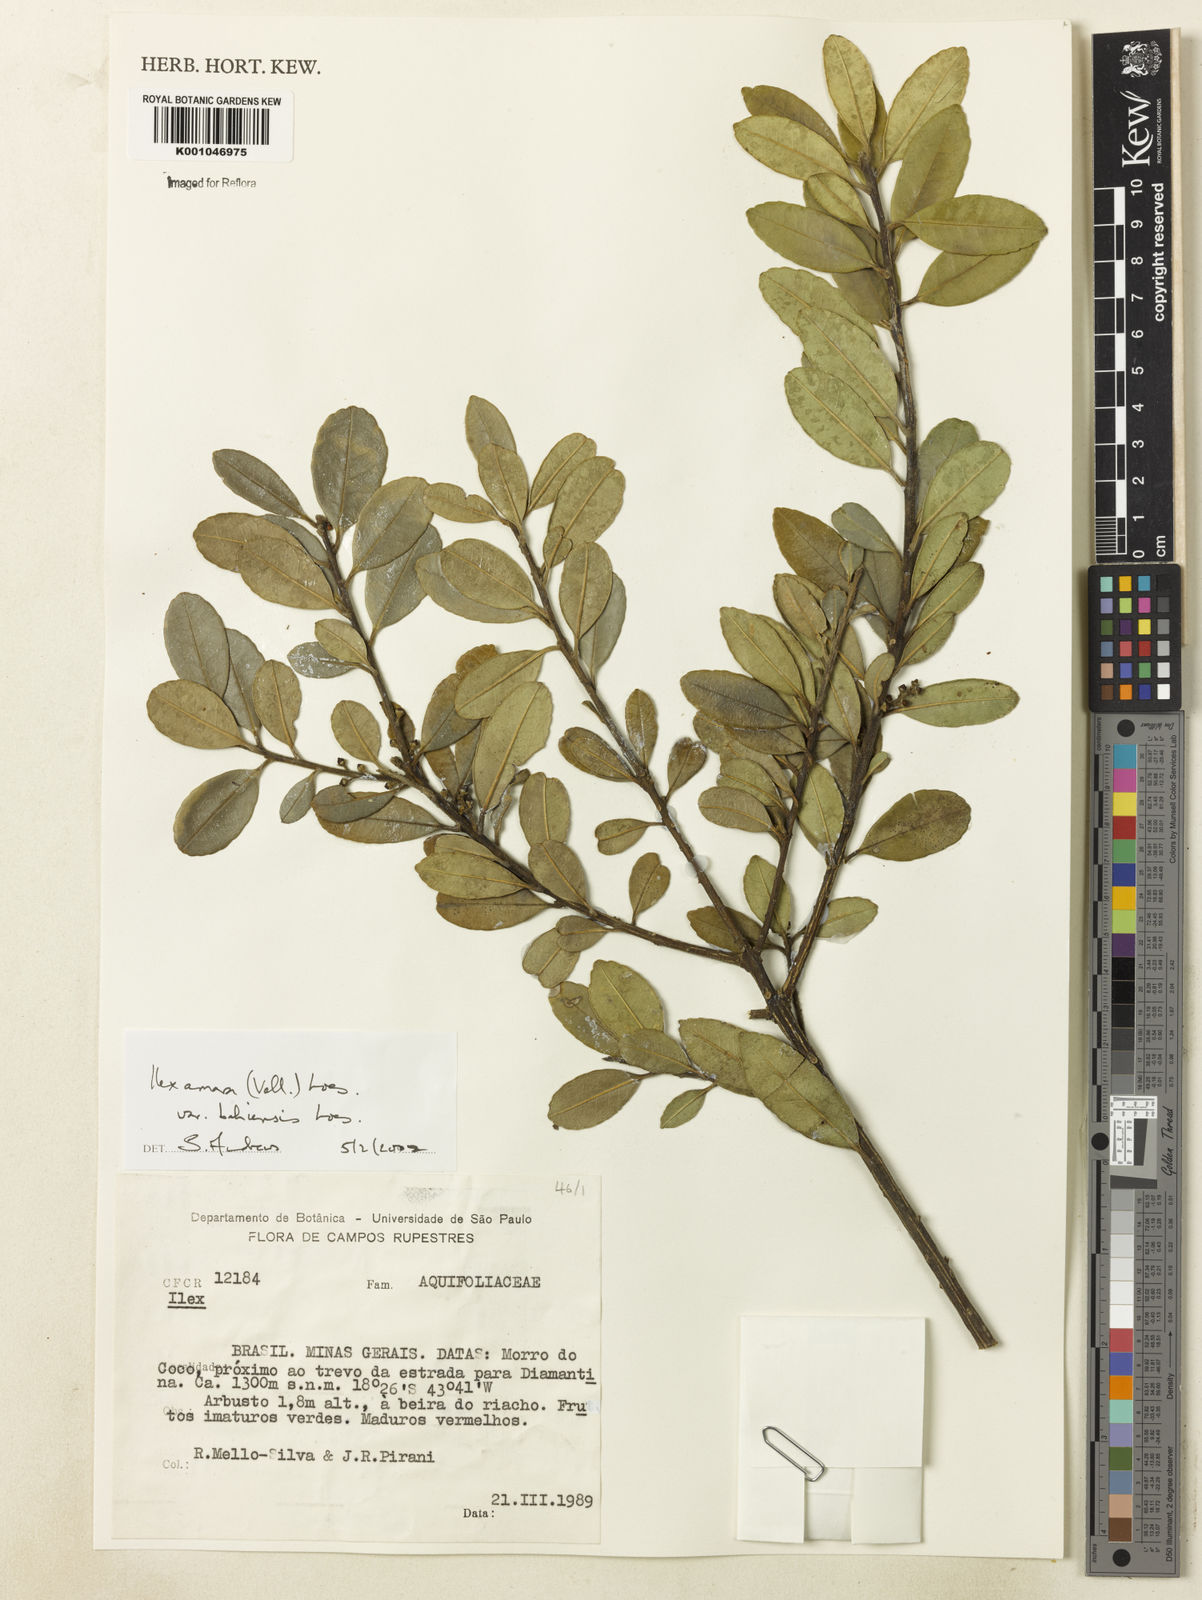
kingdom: Plantae
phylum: Tracheophyta
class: Magnoliopsida
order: Aquifoliales
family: Aquifoliaceae
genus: Ilex
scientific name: Ilex dumosa
